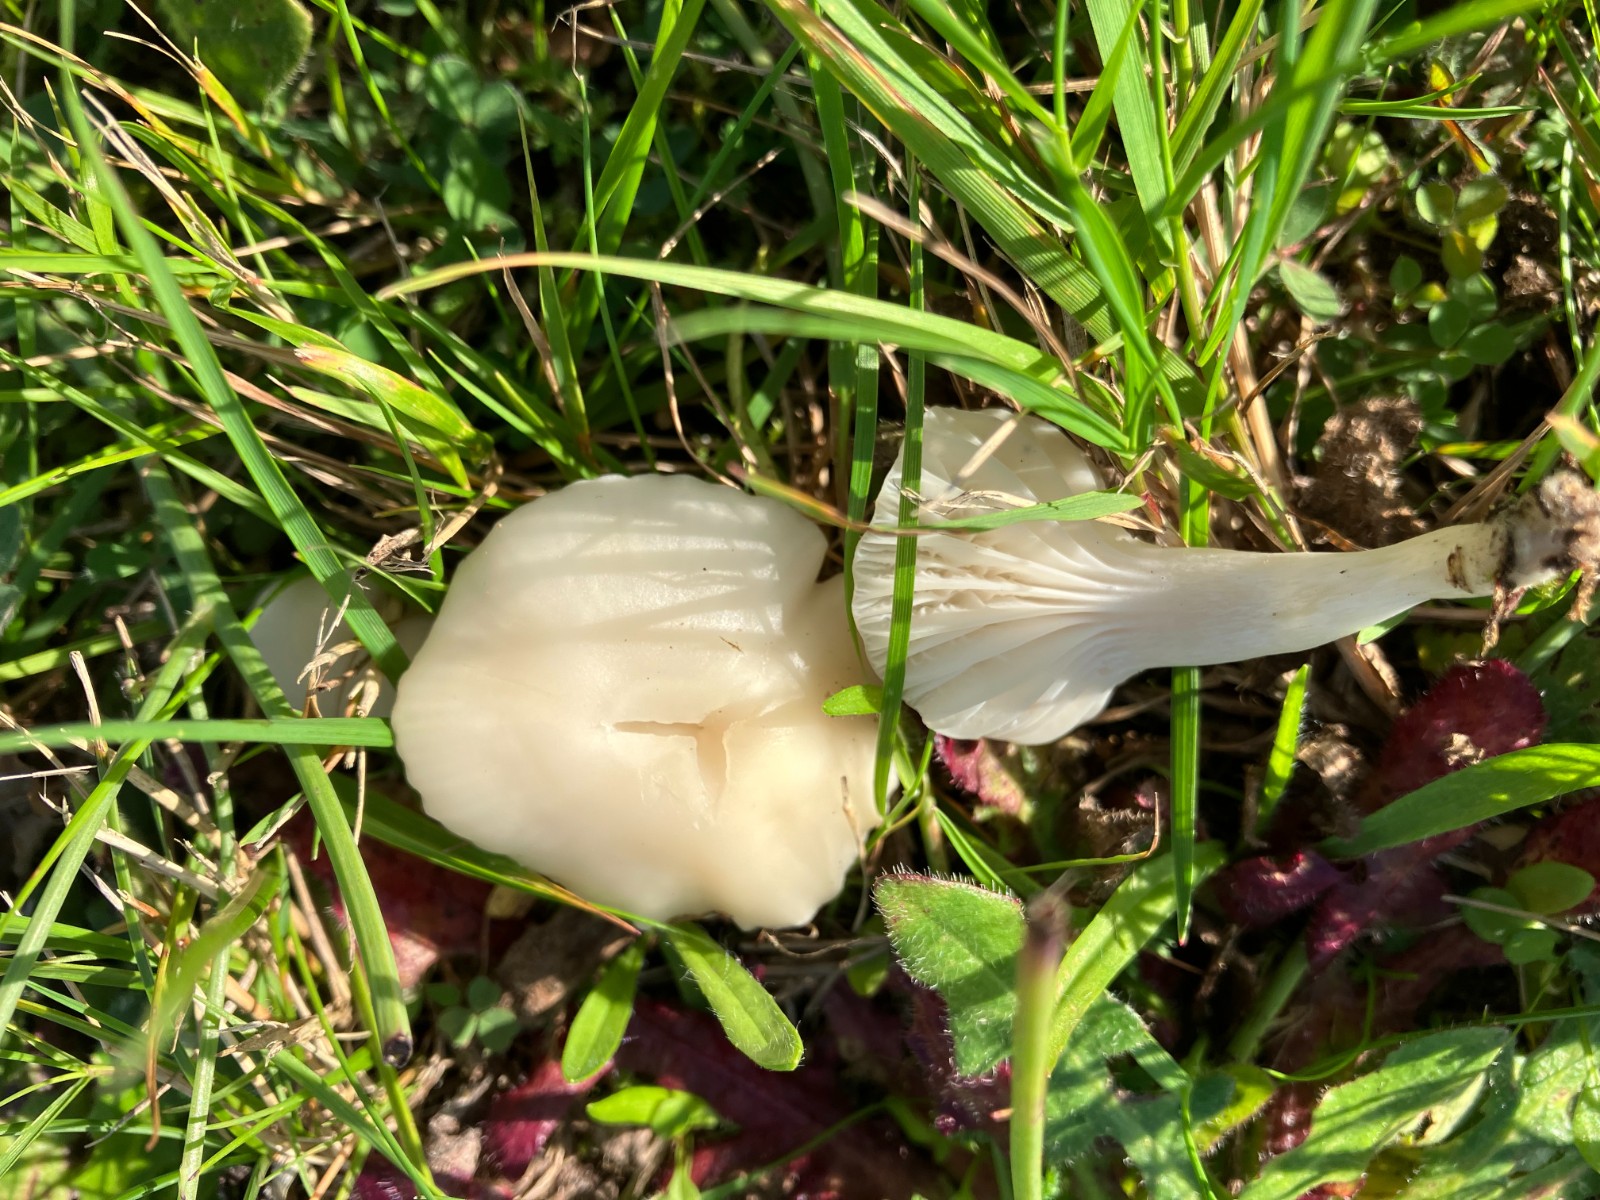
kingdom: Fungi
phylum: Basidiomycota
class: Agaricomycetes
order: Agaricales
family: Hygrophoraceae
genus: Cuphophyllus
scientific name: Cuphophyllus virgineus
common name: snehvid vokshat
